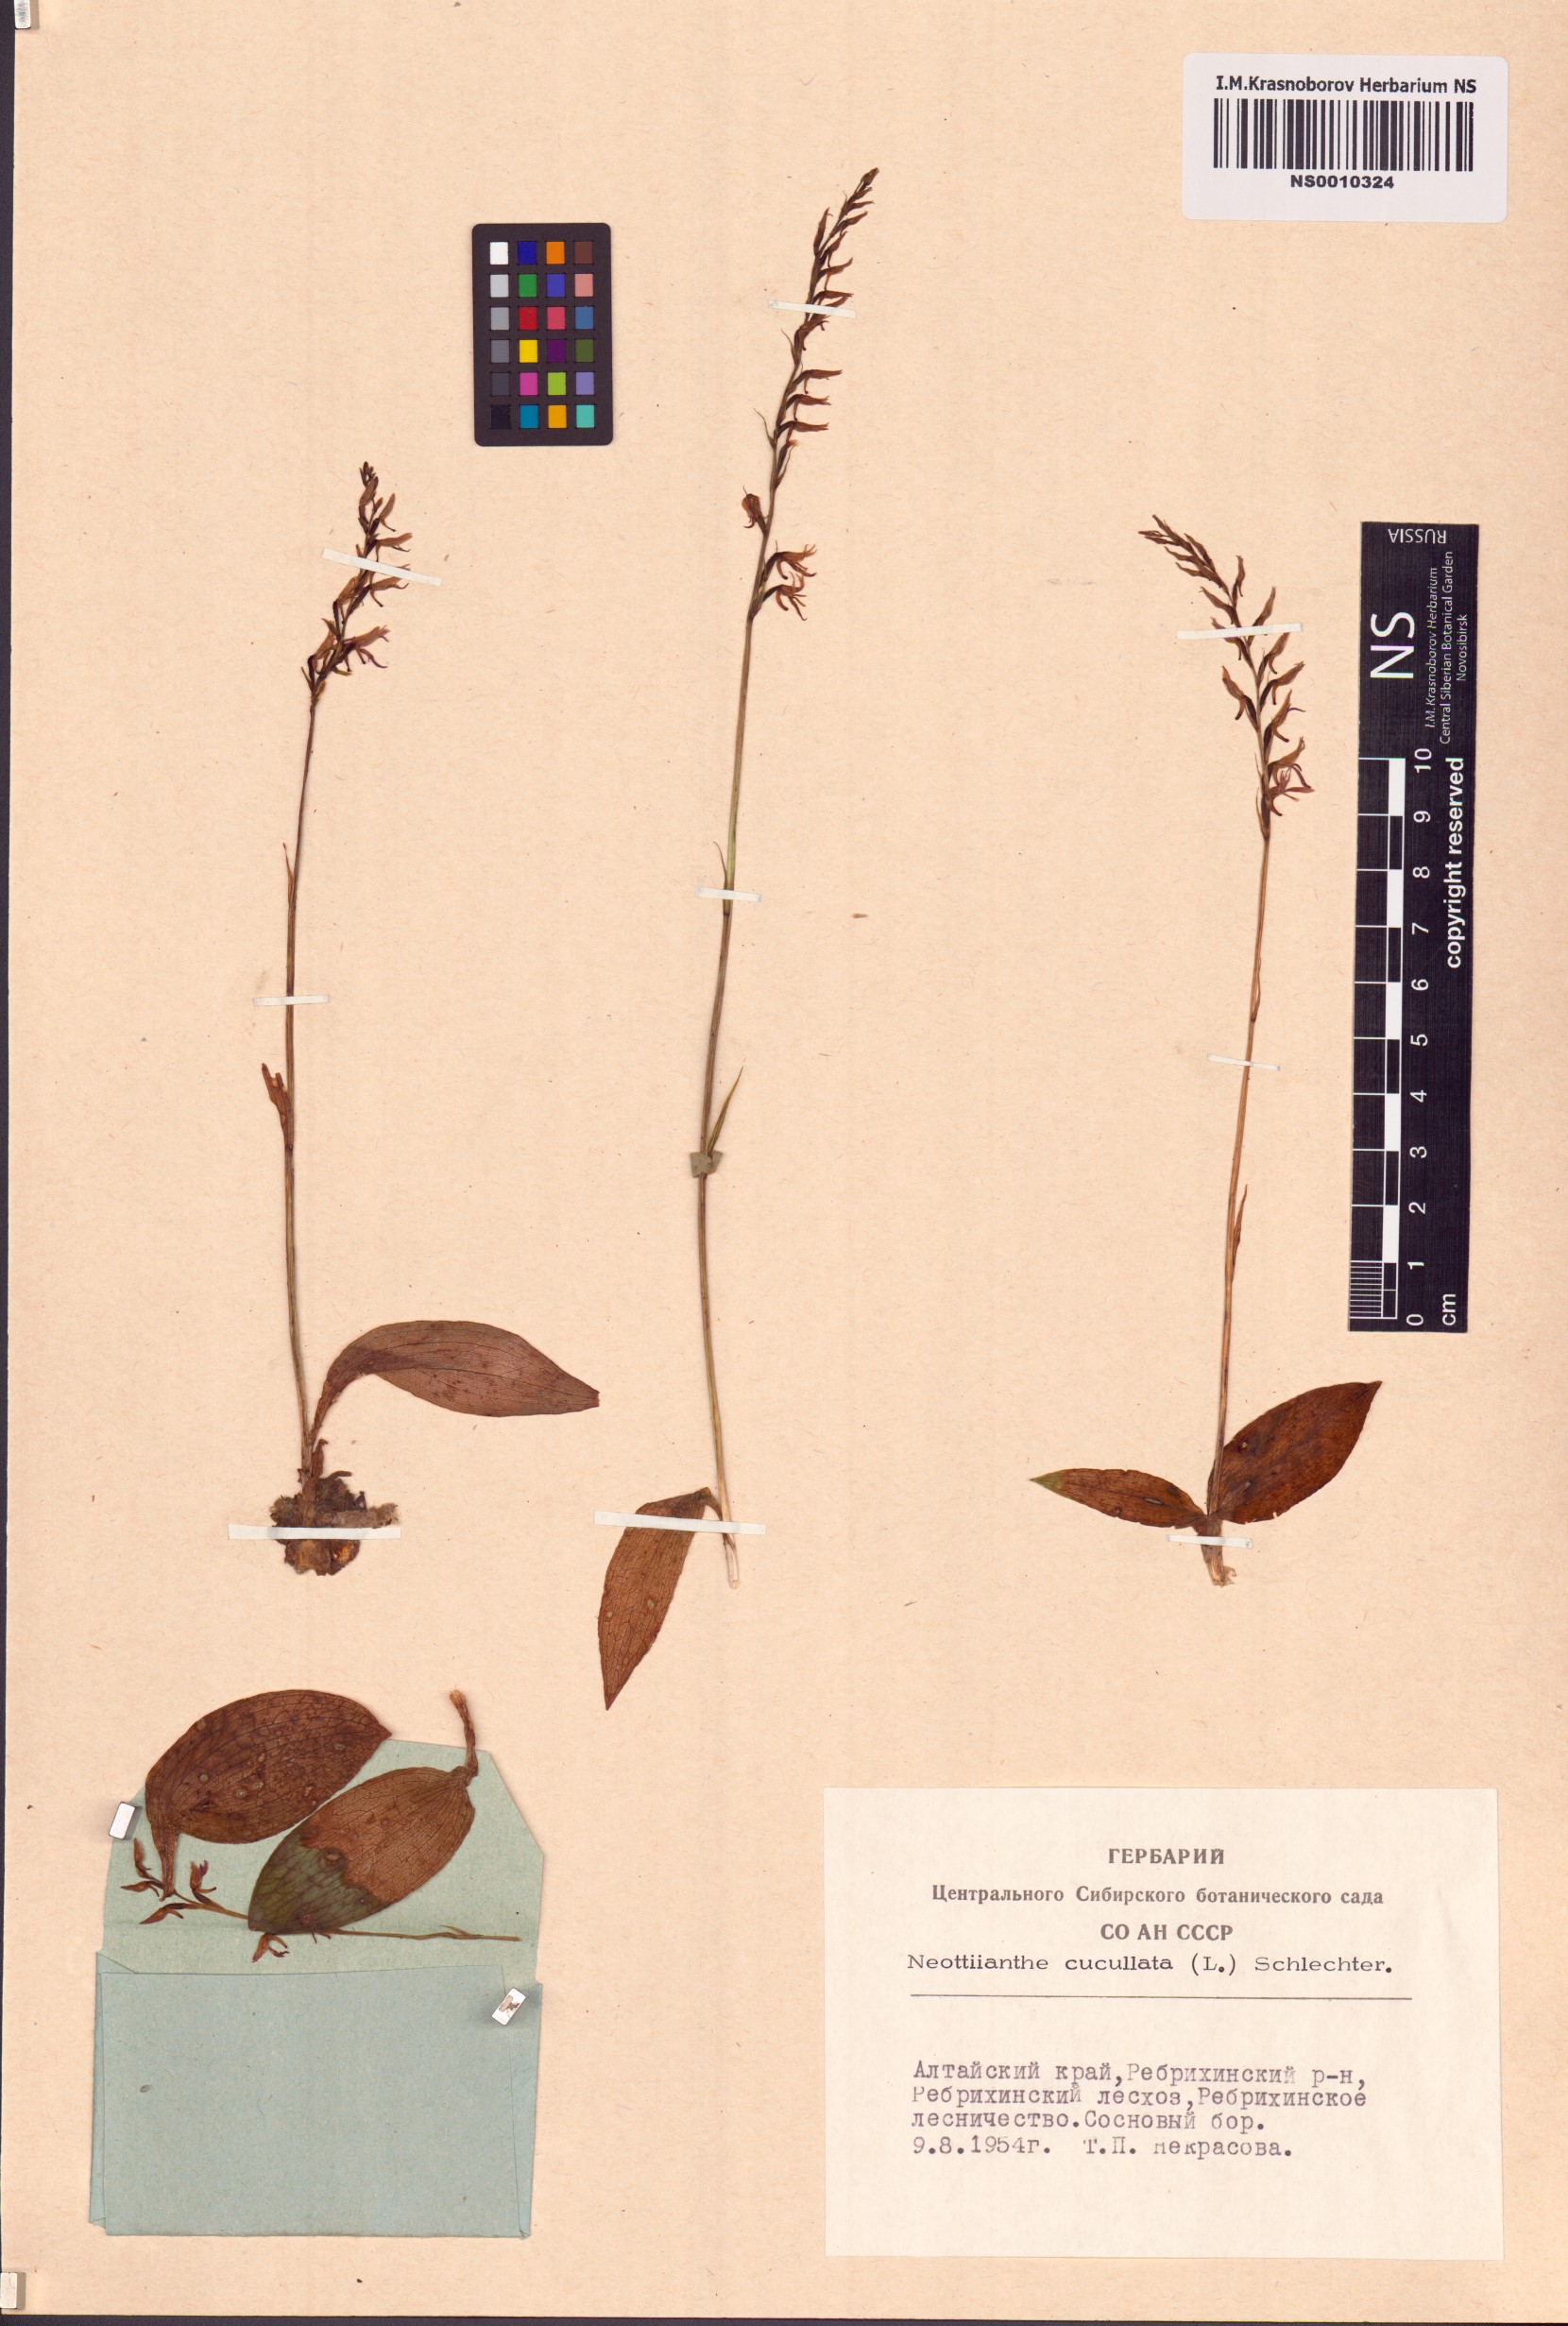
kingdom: Plantae
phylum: Tracheophyta
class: Liliopsida
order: Asparagales
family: Orchidaceae
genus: Hemipilia
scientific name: Hemipilia cucullata
